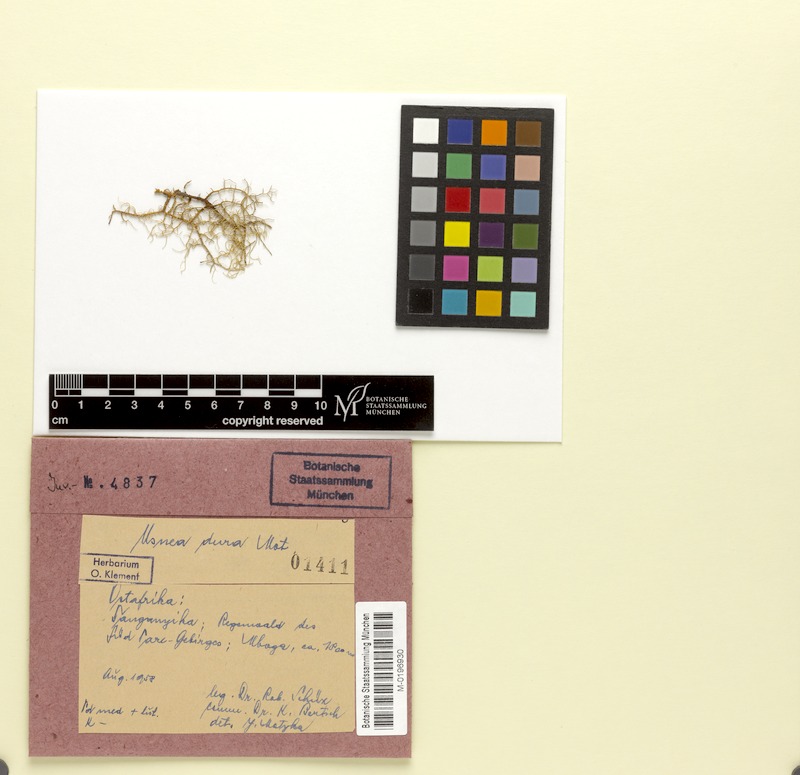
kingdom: Fungi
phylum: Ascomycota
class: Lecanoromycetes
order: Lecanorales
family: Parmeliaceae
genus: Usnea
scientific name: Usnea
